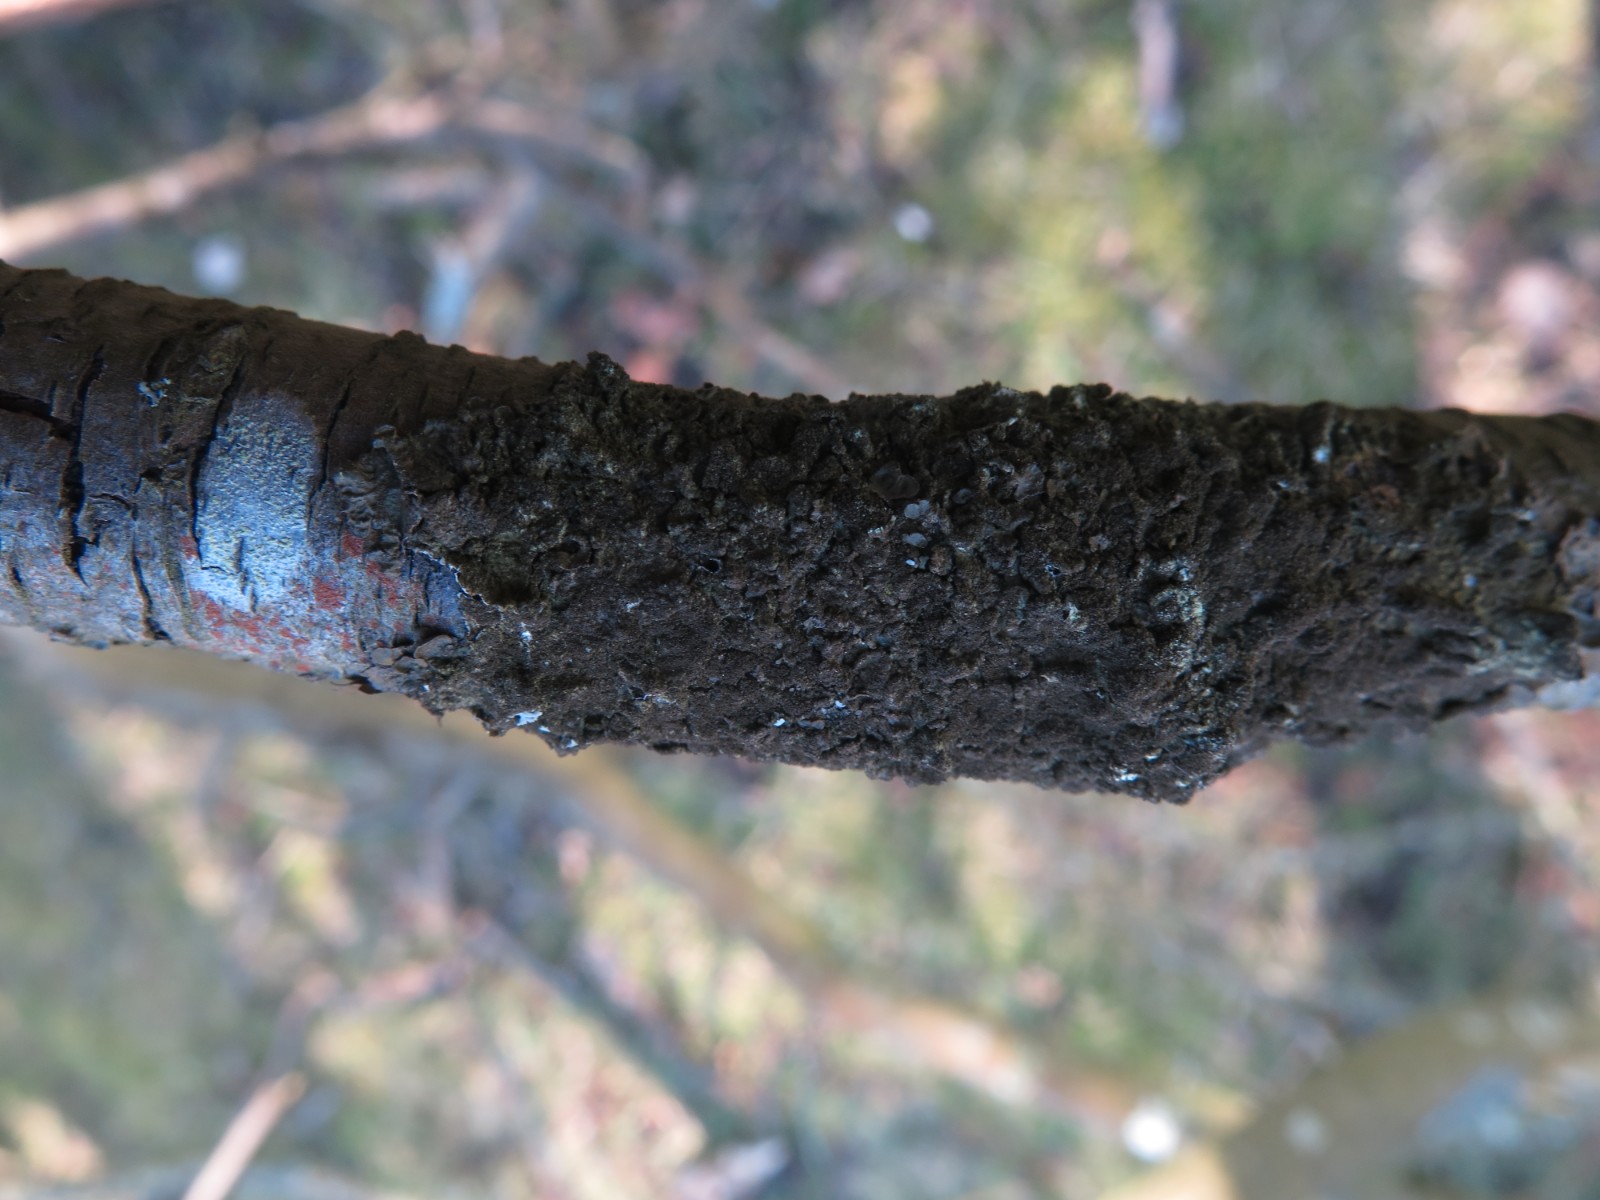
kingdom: Fungi
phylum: Ascomycota
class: Lecanoromycetes
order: Lecanorales
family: Parmeliaceae
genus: Melanelixia
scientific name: Melanelixia subaurifera
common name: guldpudret skållav
